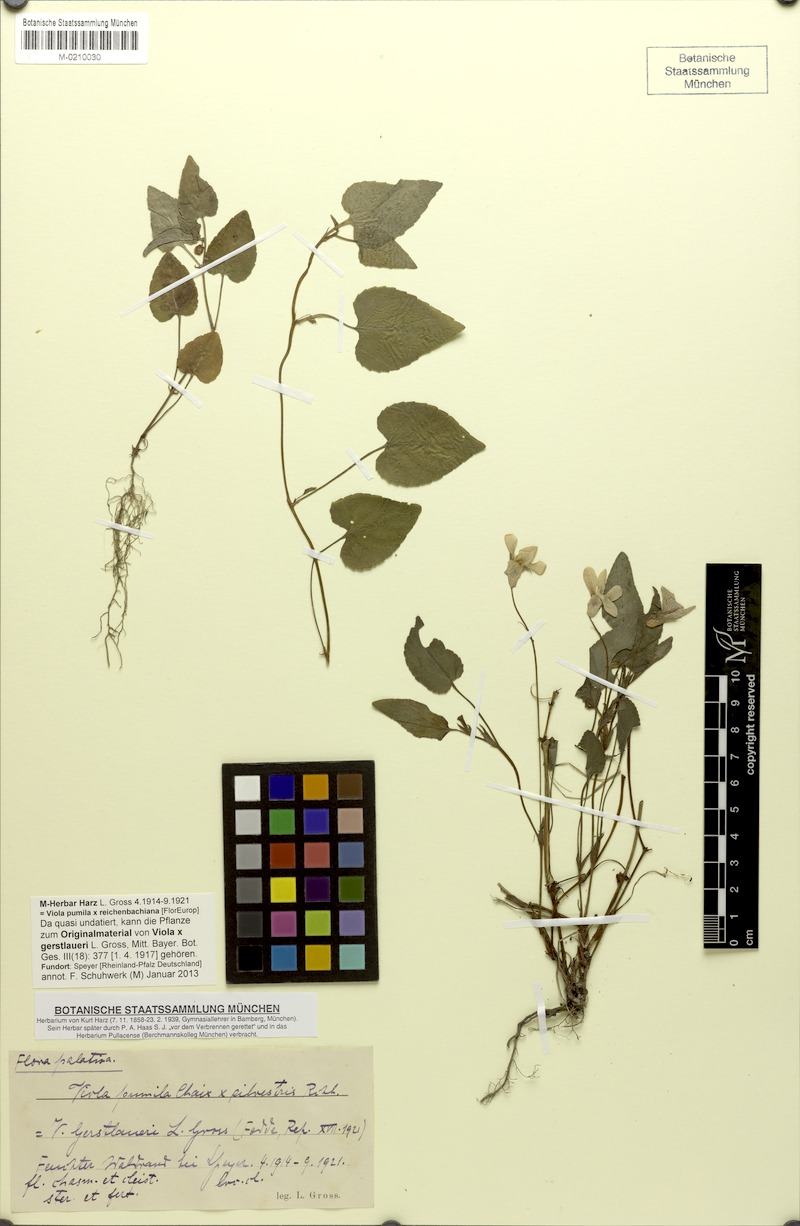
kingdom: Plantae
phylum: Tracheophyta
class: Magnoliopsida
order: Malpighiales
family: Violaceae
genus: Viola
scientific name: Viola ruppii
